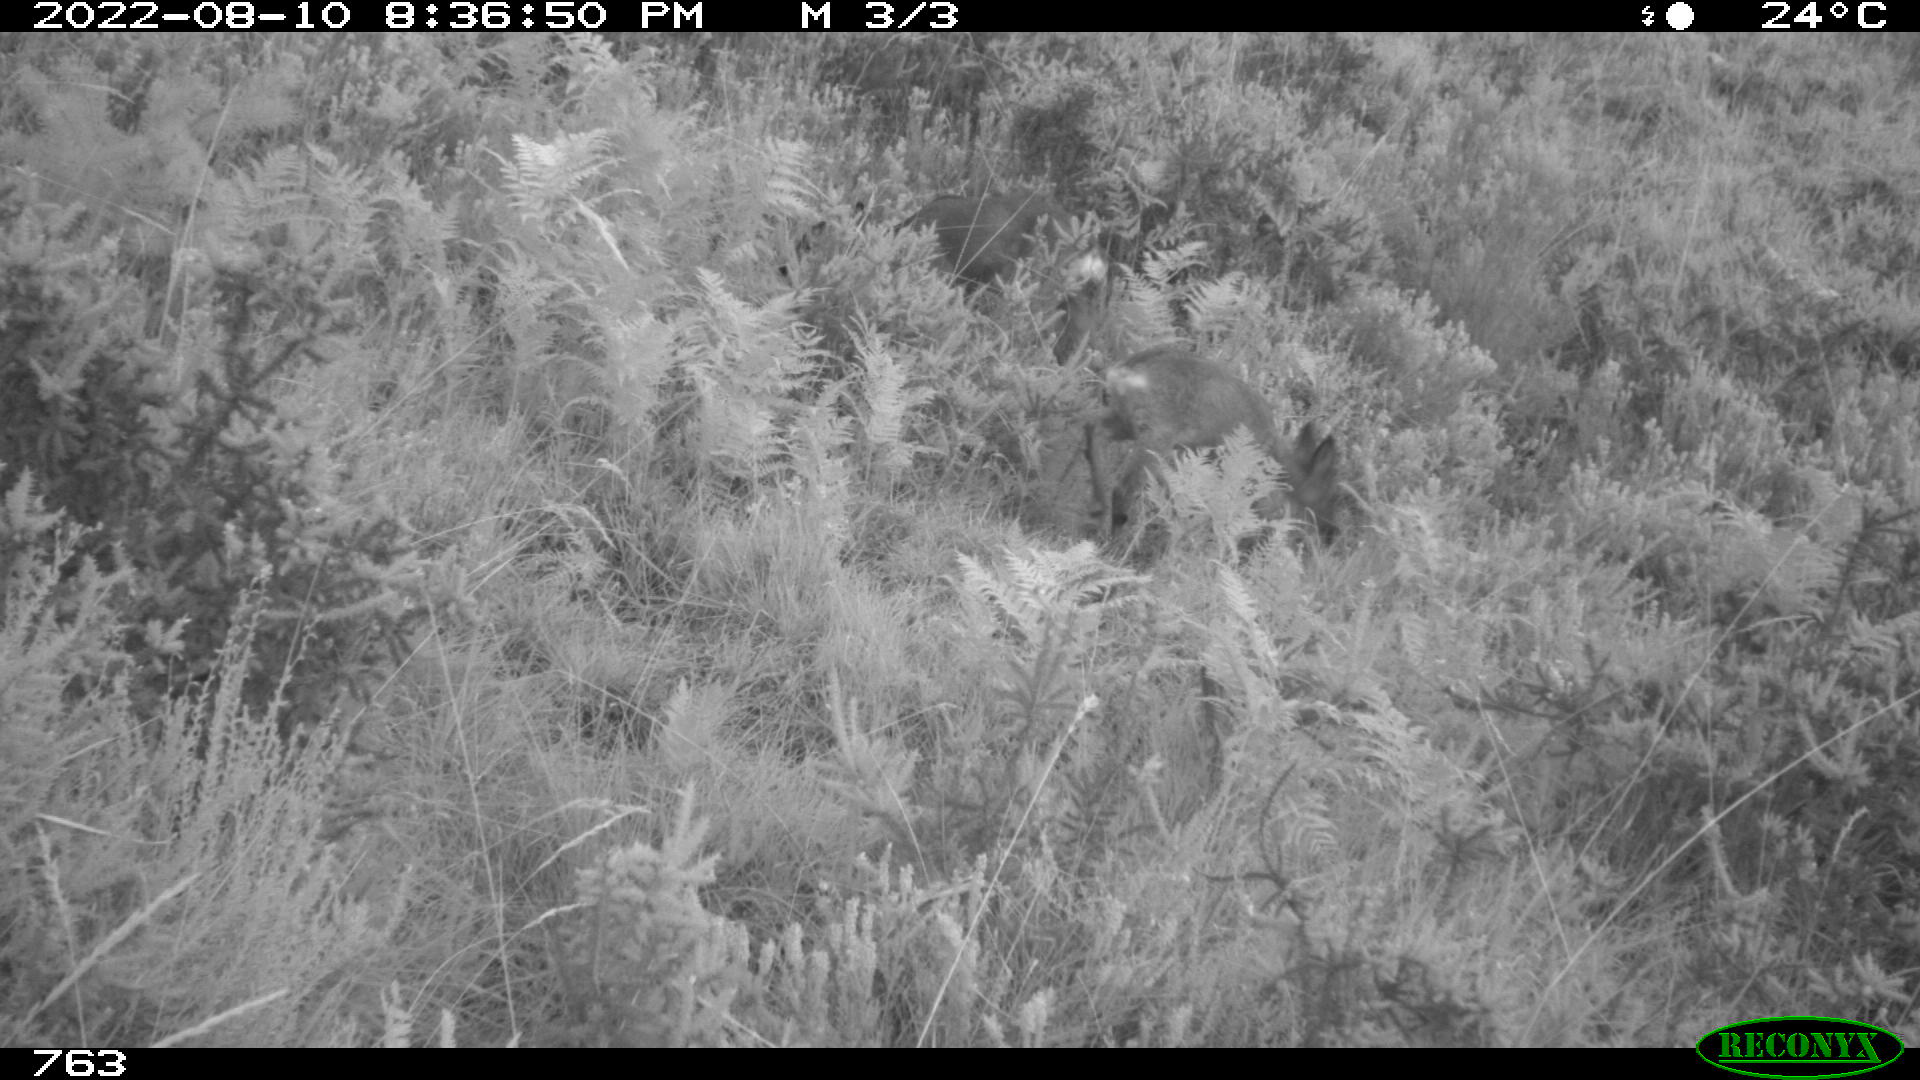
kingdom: Animalia
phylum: Chordata
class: Mammalia
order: Artiodactyla
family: Cervidae
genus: Capreolus
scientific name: Capreolus capreolus
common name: Western roe deer
